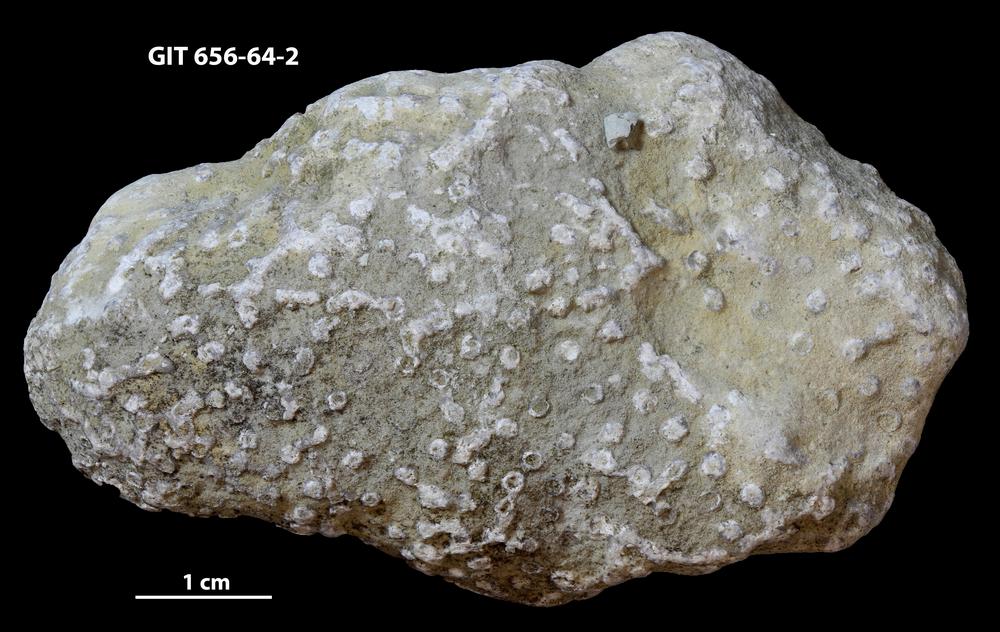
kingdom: Animalia
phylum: Cnidaria
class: Anthozoa
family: Auloporidae
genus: Aulopora
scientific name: Aulopora
